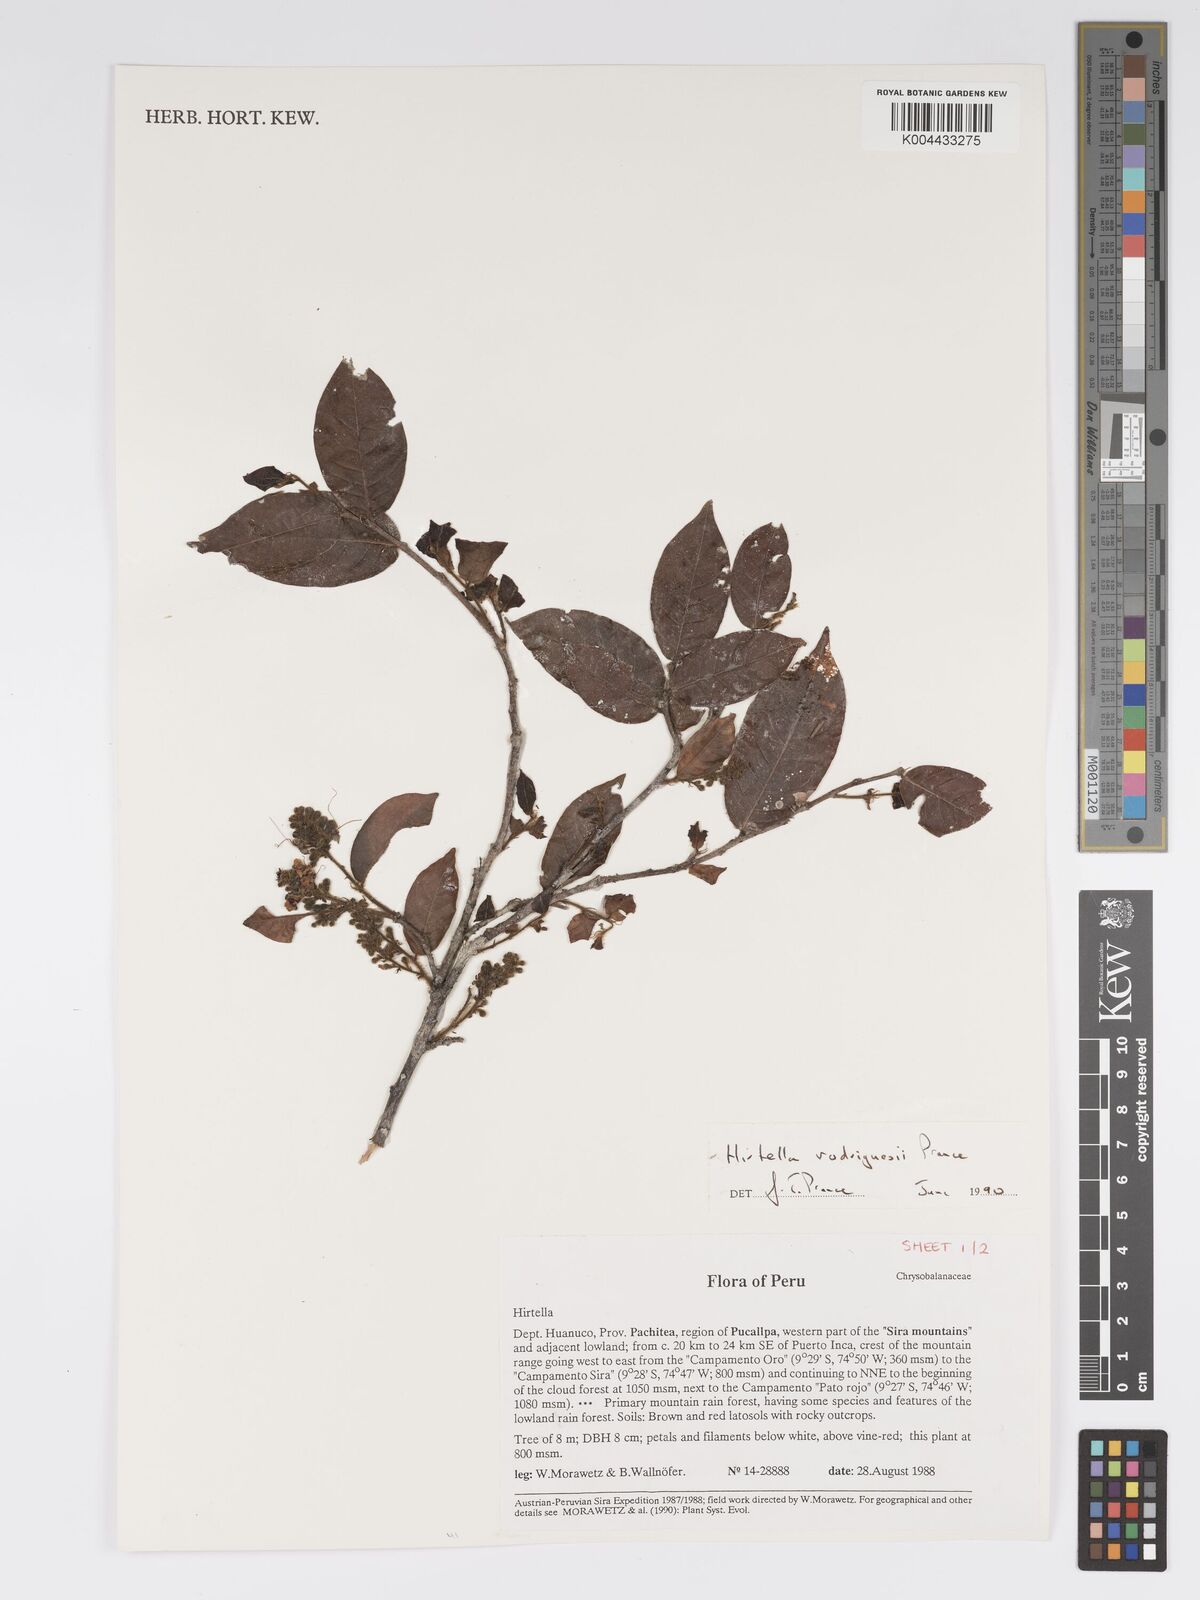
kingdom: Plantae
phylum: Tracheophyta
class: Magnoliopsida
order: Malpighiales
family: Chrysobalanaceae
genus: Hirtella
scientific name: Hirtella rodriguesii
